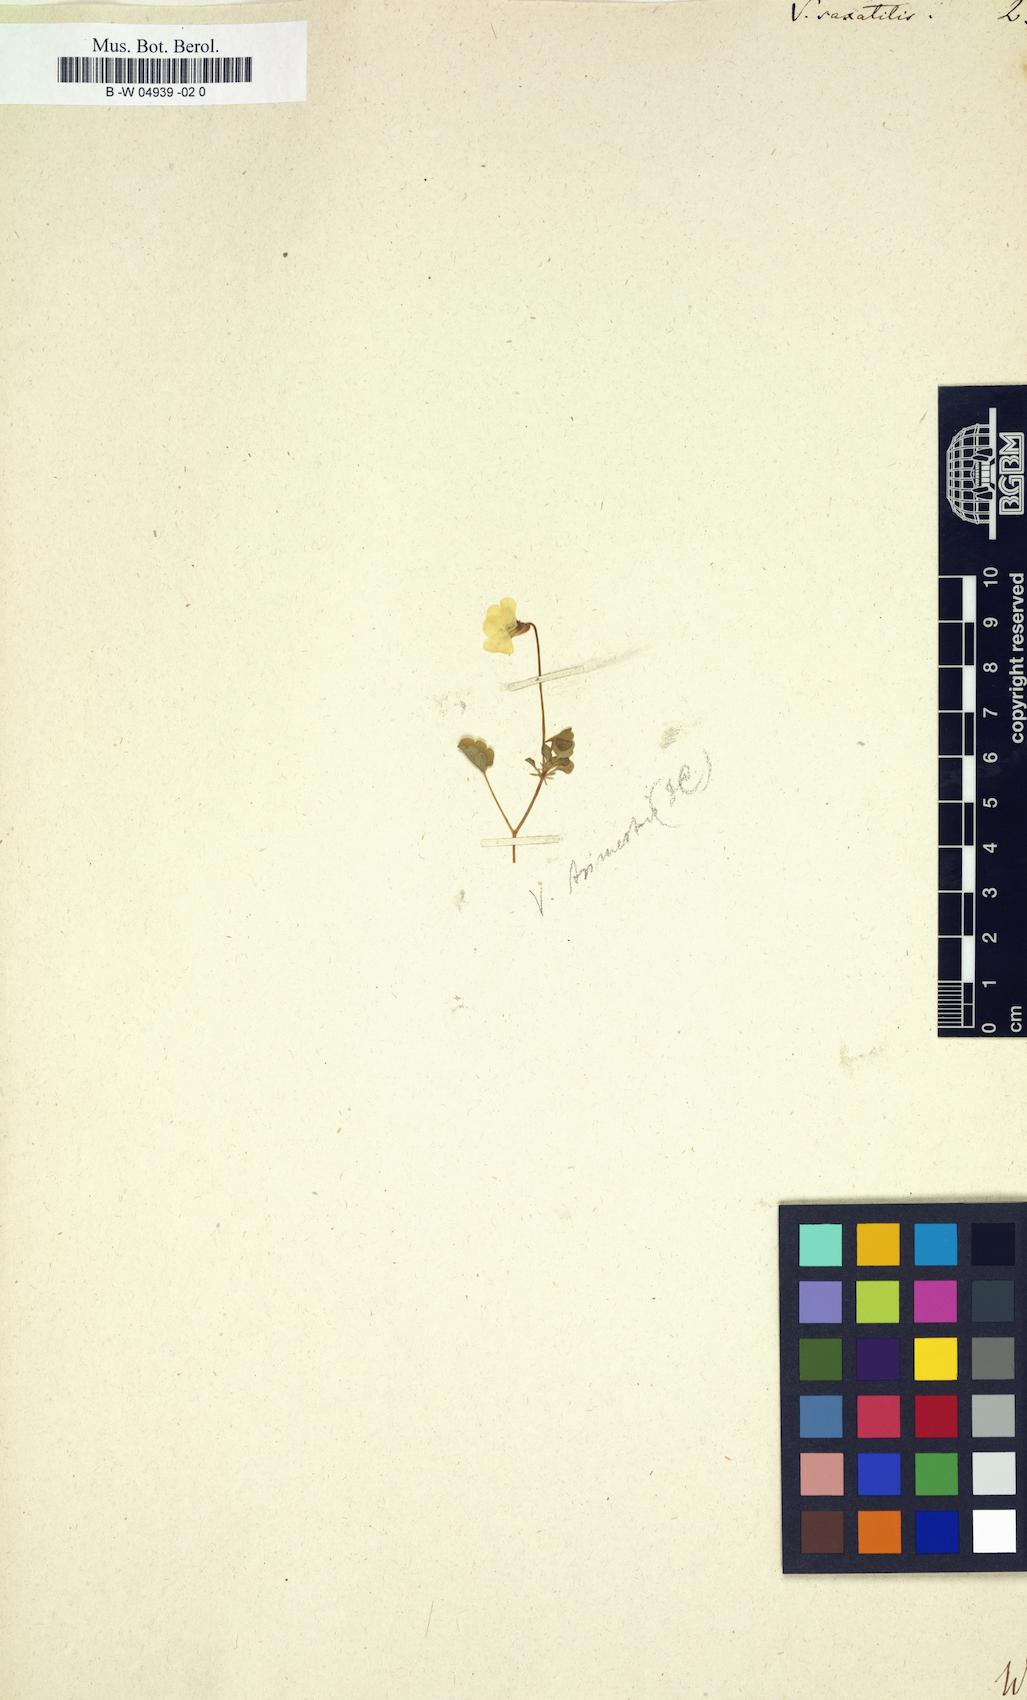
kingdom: Plantae
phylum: Tracheophyta
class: Magnoliopsida
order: Malpighiales
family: Violaceae
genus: Viola
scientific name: Viola saxatilis
